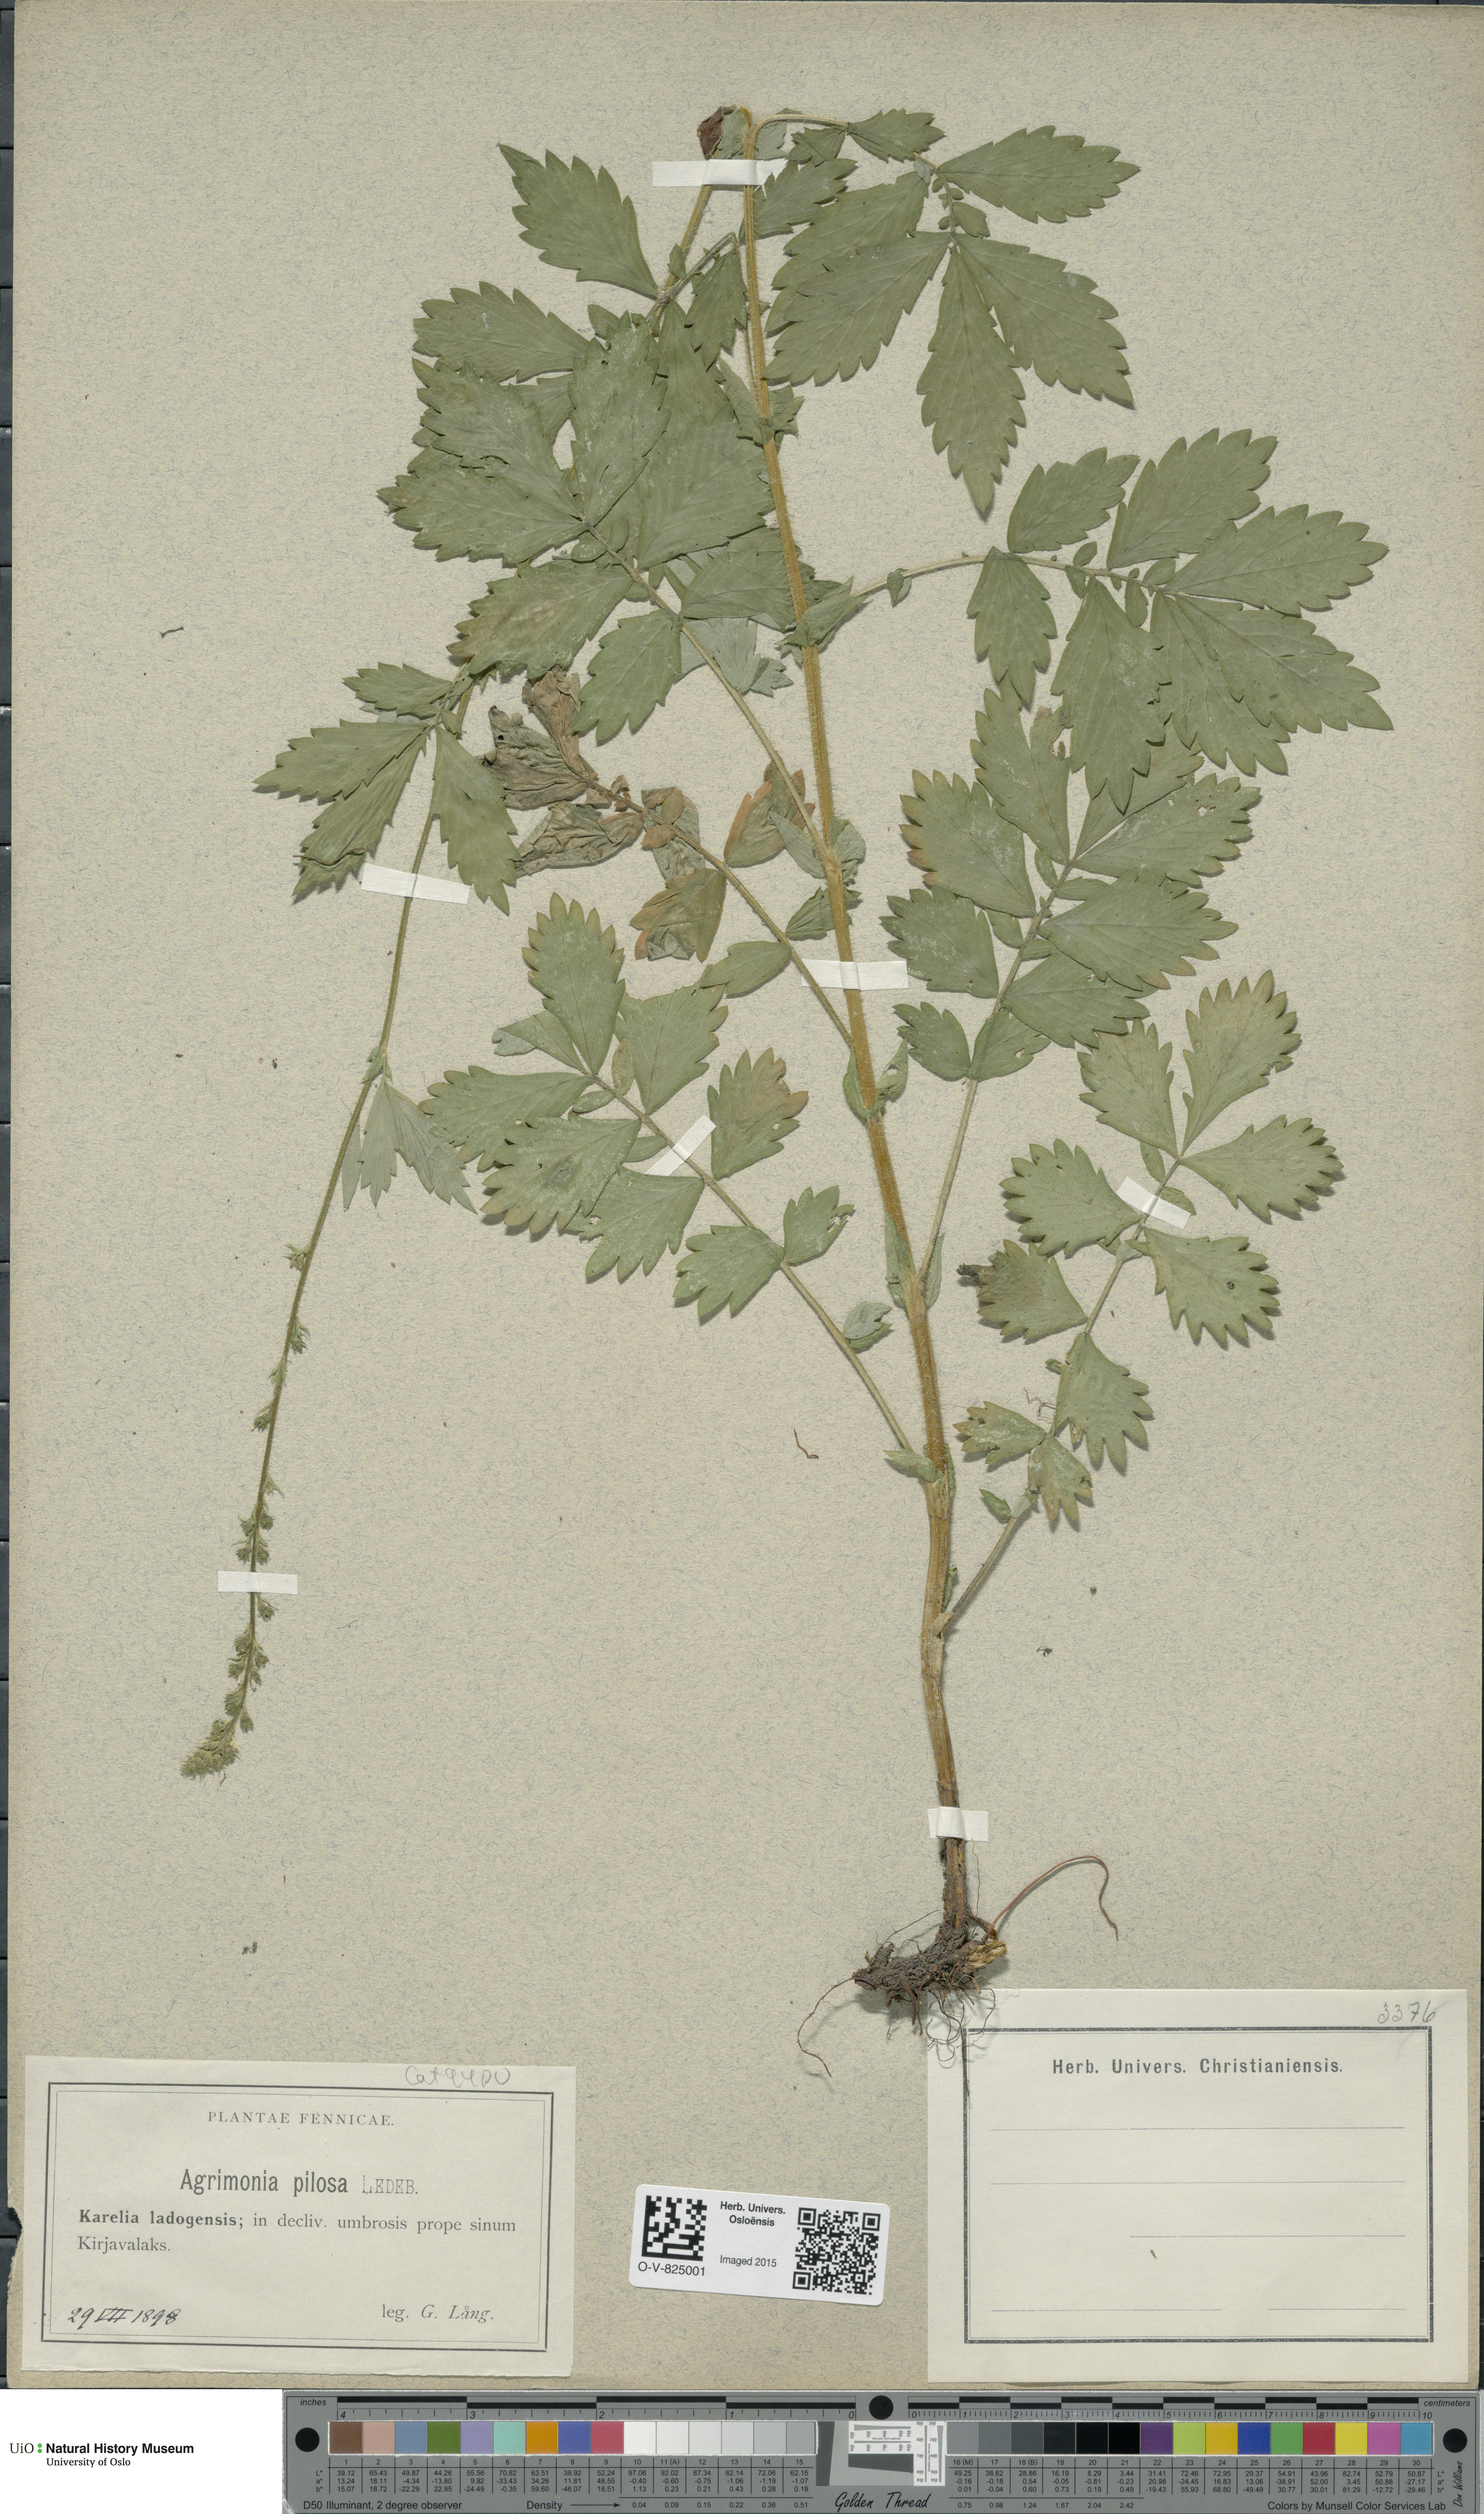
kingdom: Plantae
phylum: Tracheophyta
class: Magnoliopsida
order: Rosales
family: Rosaceae
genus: Agrimonia
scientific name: Agrimonia pilosa
